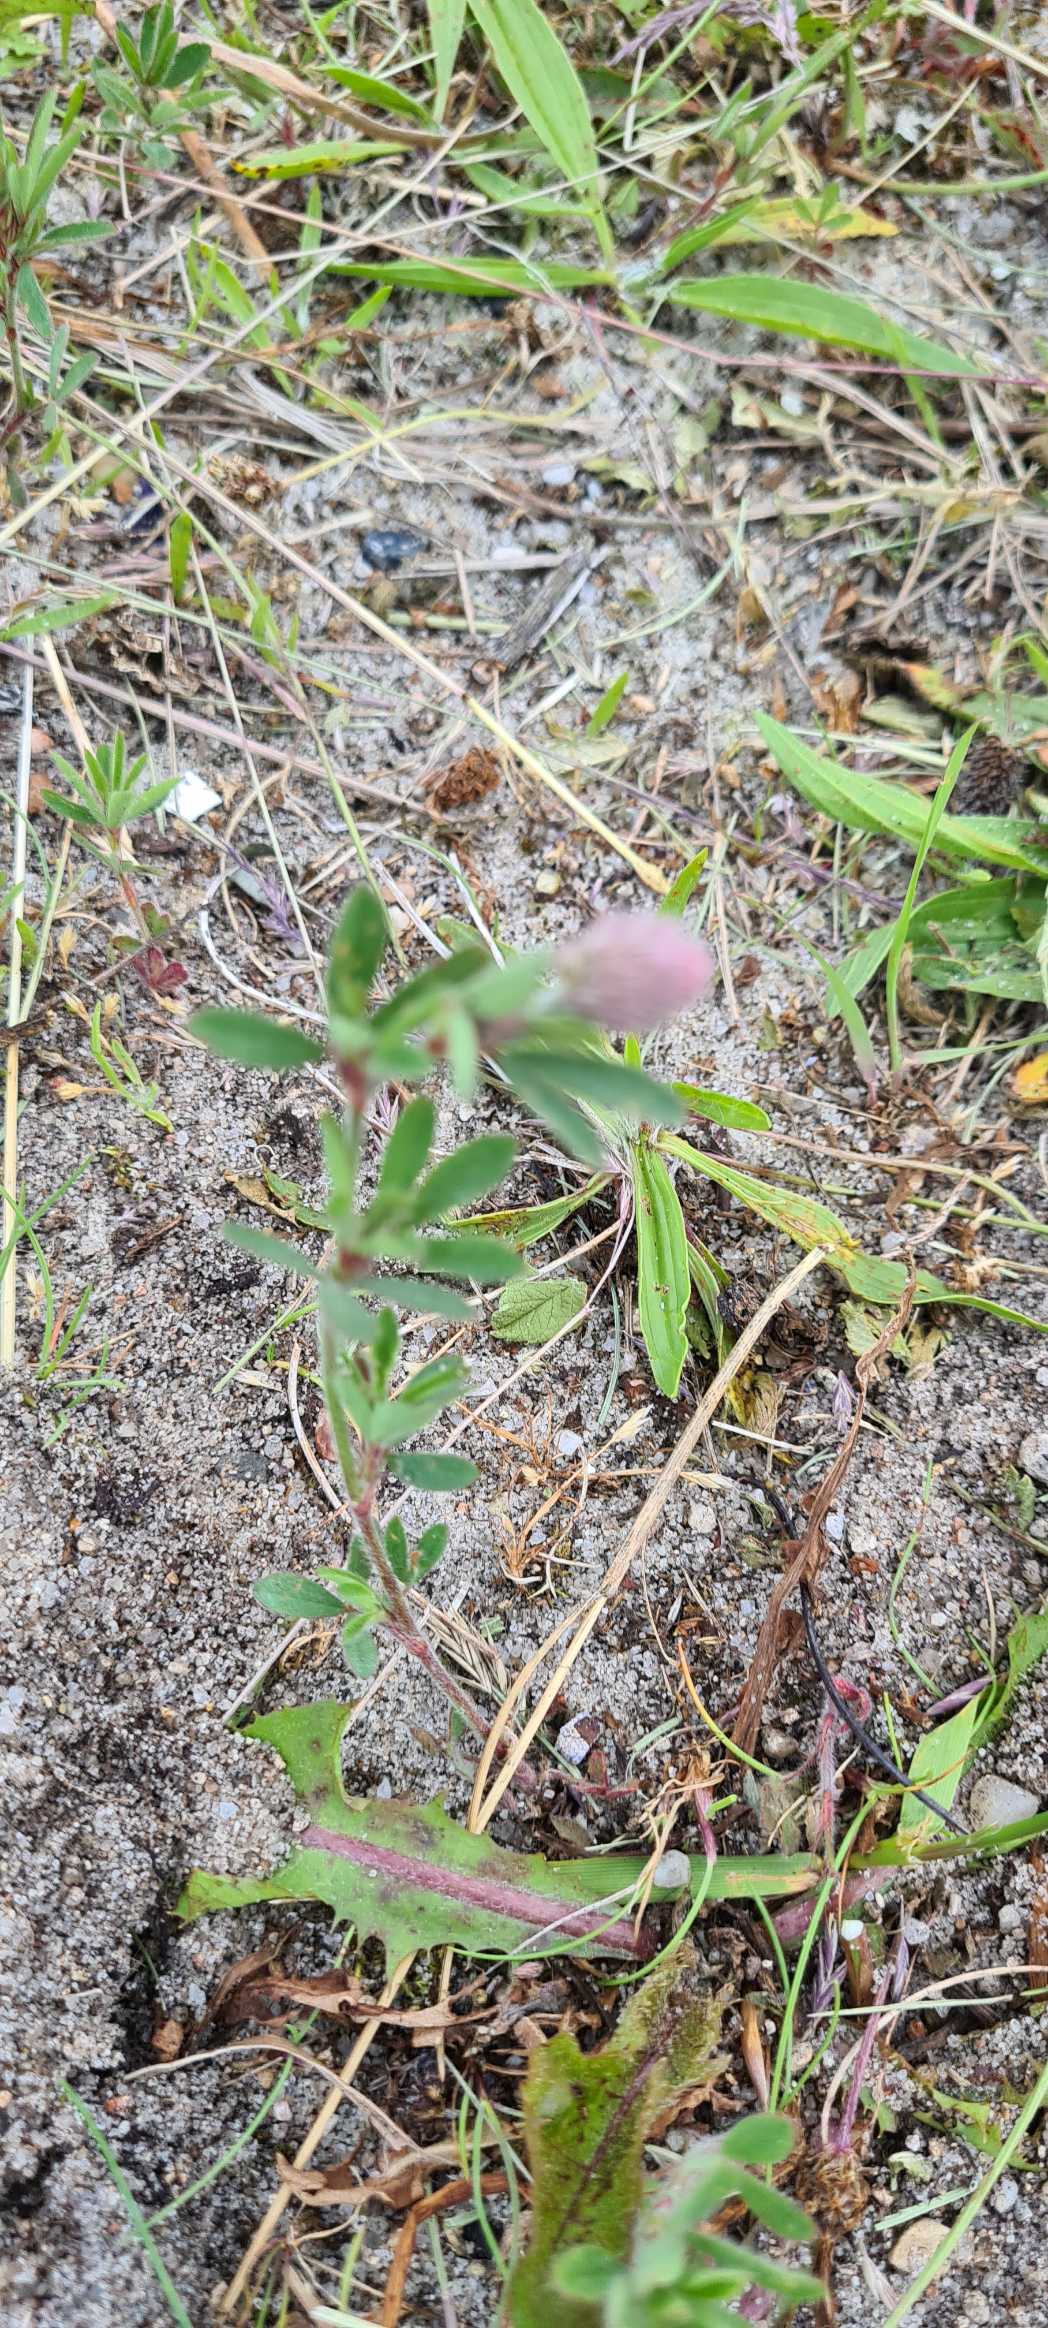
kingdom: Plantae
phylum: Tracheophyta
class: Magnoliopsida
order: Fabales
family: Fabaceae
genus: Trifolium
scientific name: Trifolium arvense
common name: Hare-kløver
